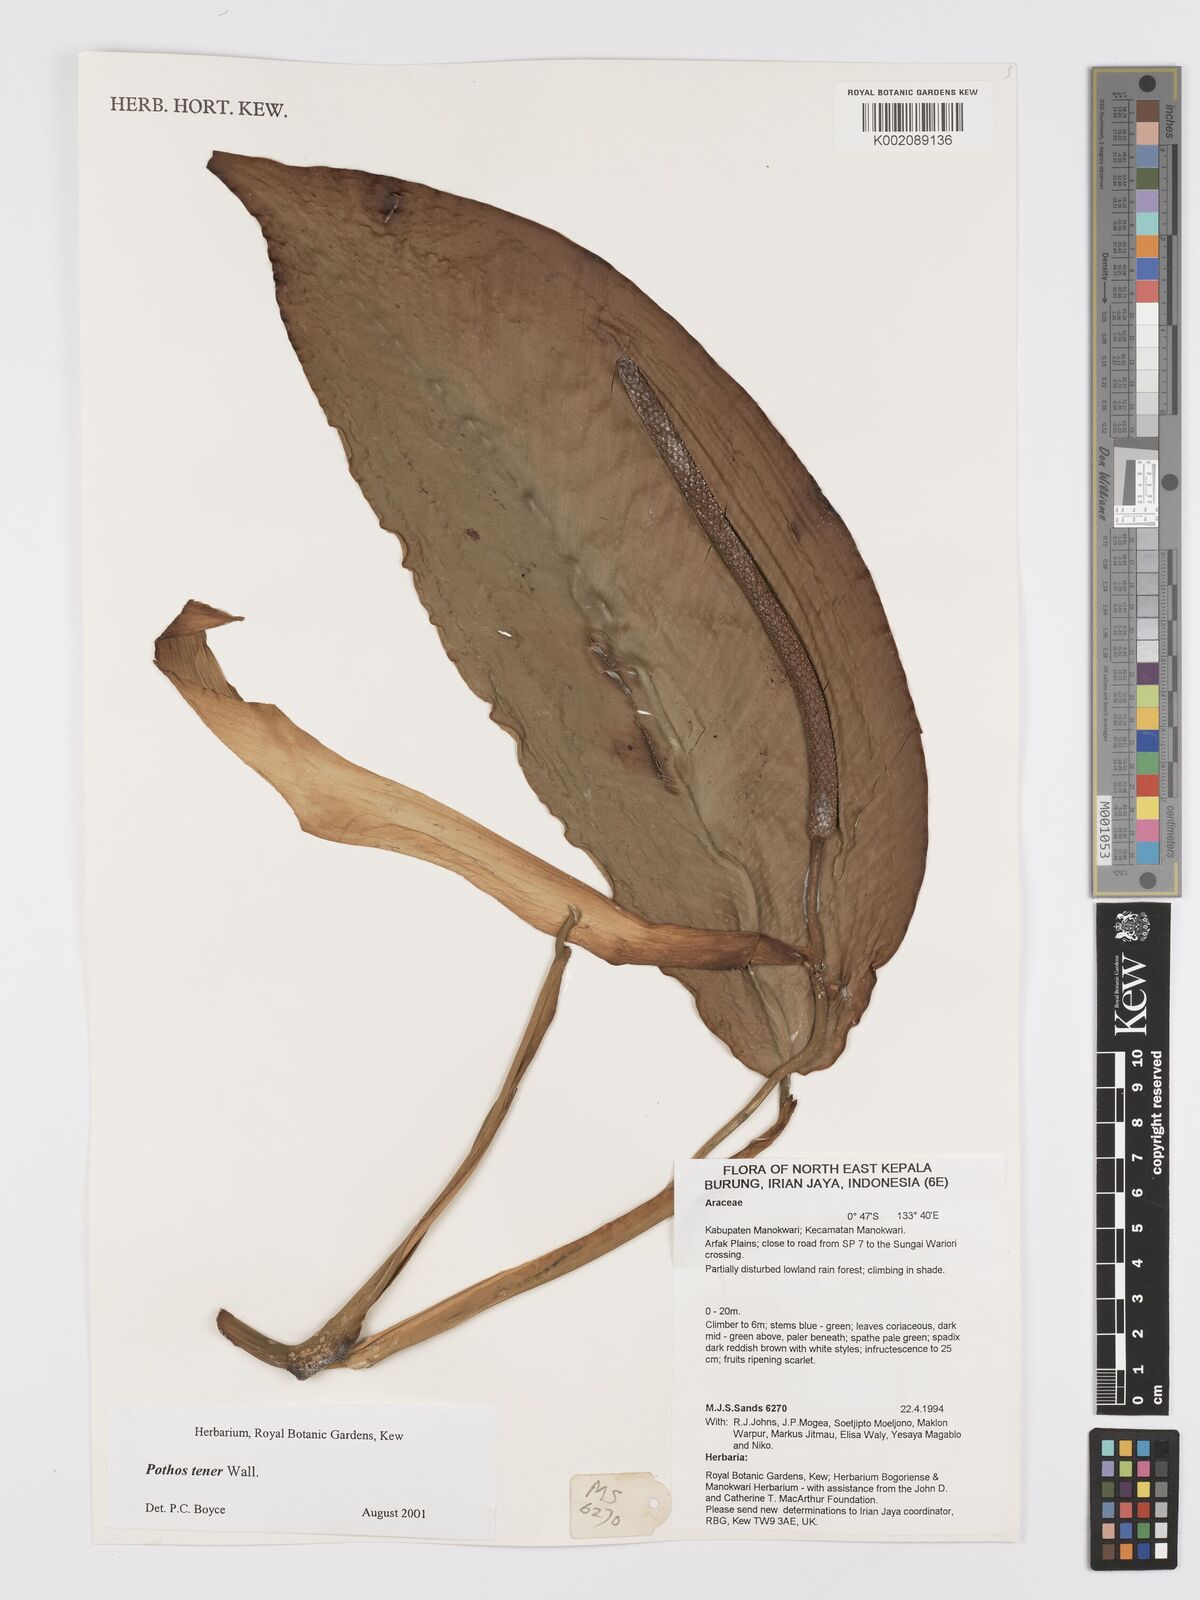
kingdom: Plantae
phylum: Tracheophyta
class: Liliopsida
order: Alismatales
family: Araceae
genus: Pothos
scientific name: Pothos tener
